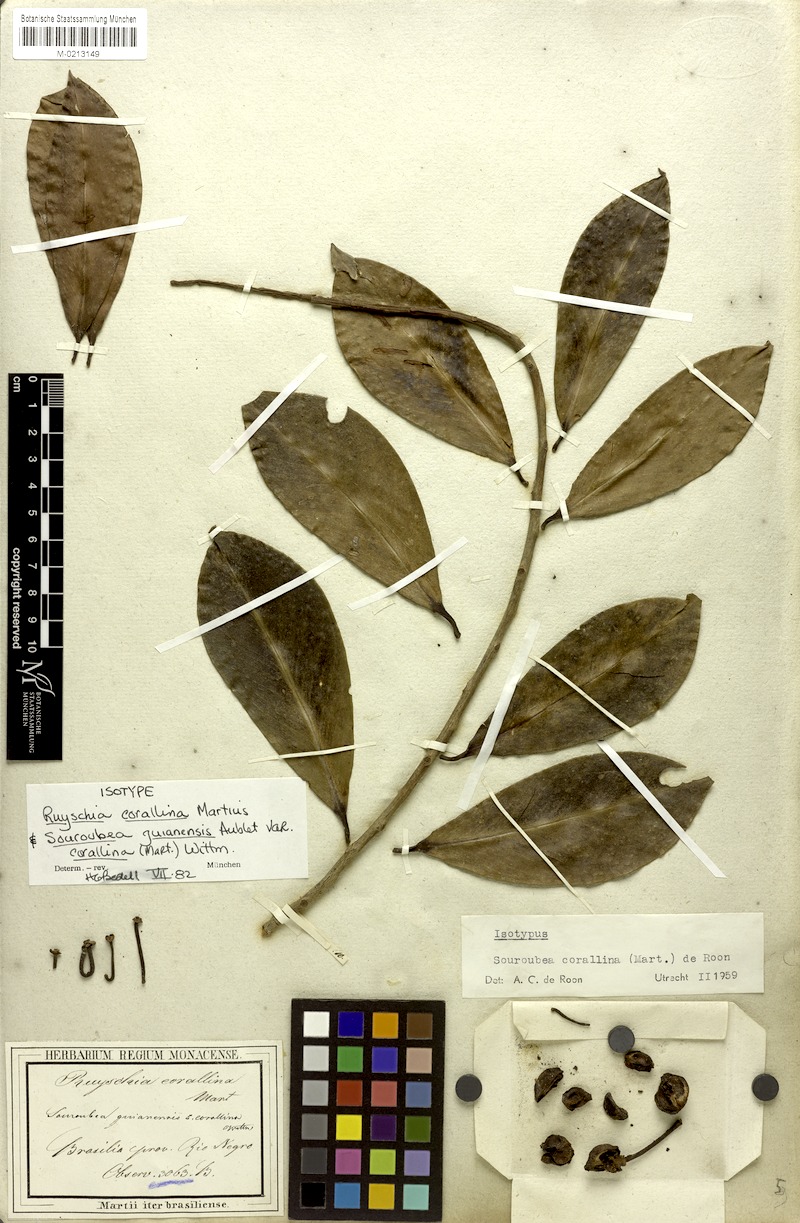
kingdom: Plantae
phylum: Tracheophyta
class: Magnoliopsida
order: Ericales
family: Marcgraviaceae
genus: Souroubea
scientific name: Souroubea corallina
